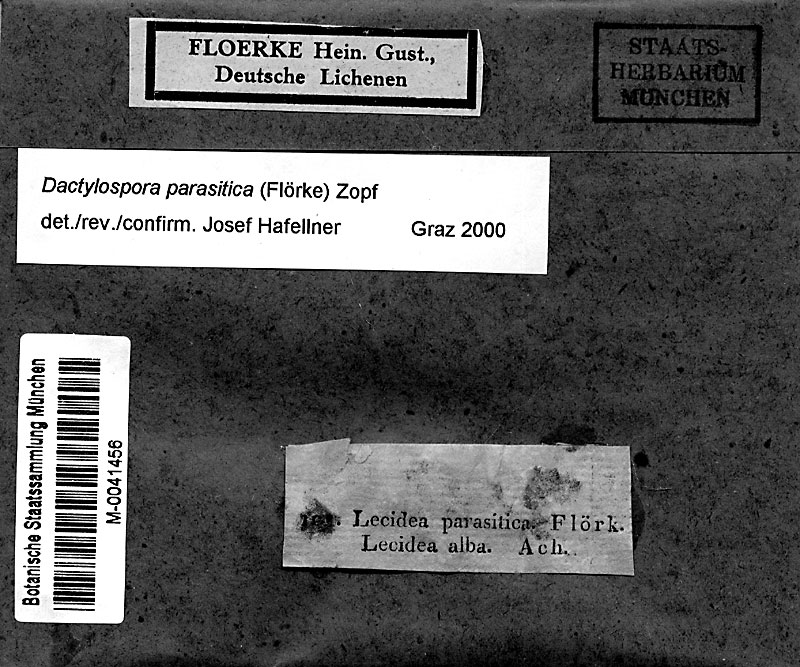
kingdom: Fungi
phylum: Ascomycota
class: Lecanoromycetes
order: Lecanorales
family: Dactylosporaceae
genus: Dactylospora
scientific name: Dactylospora parasitica
